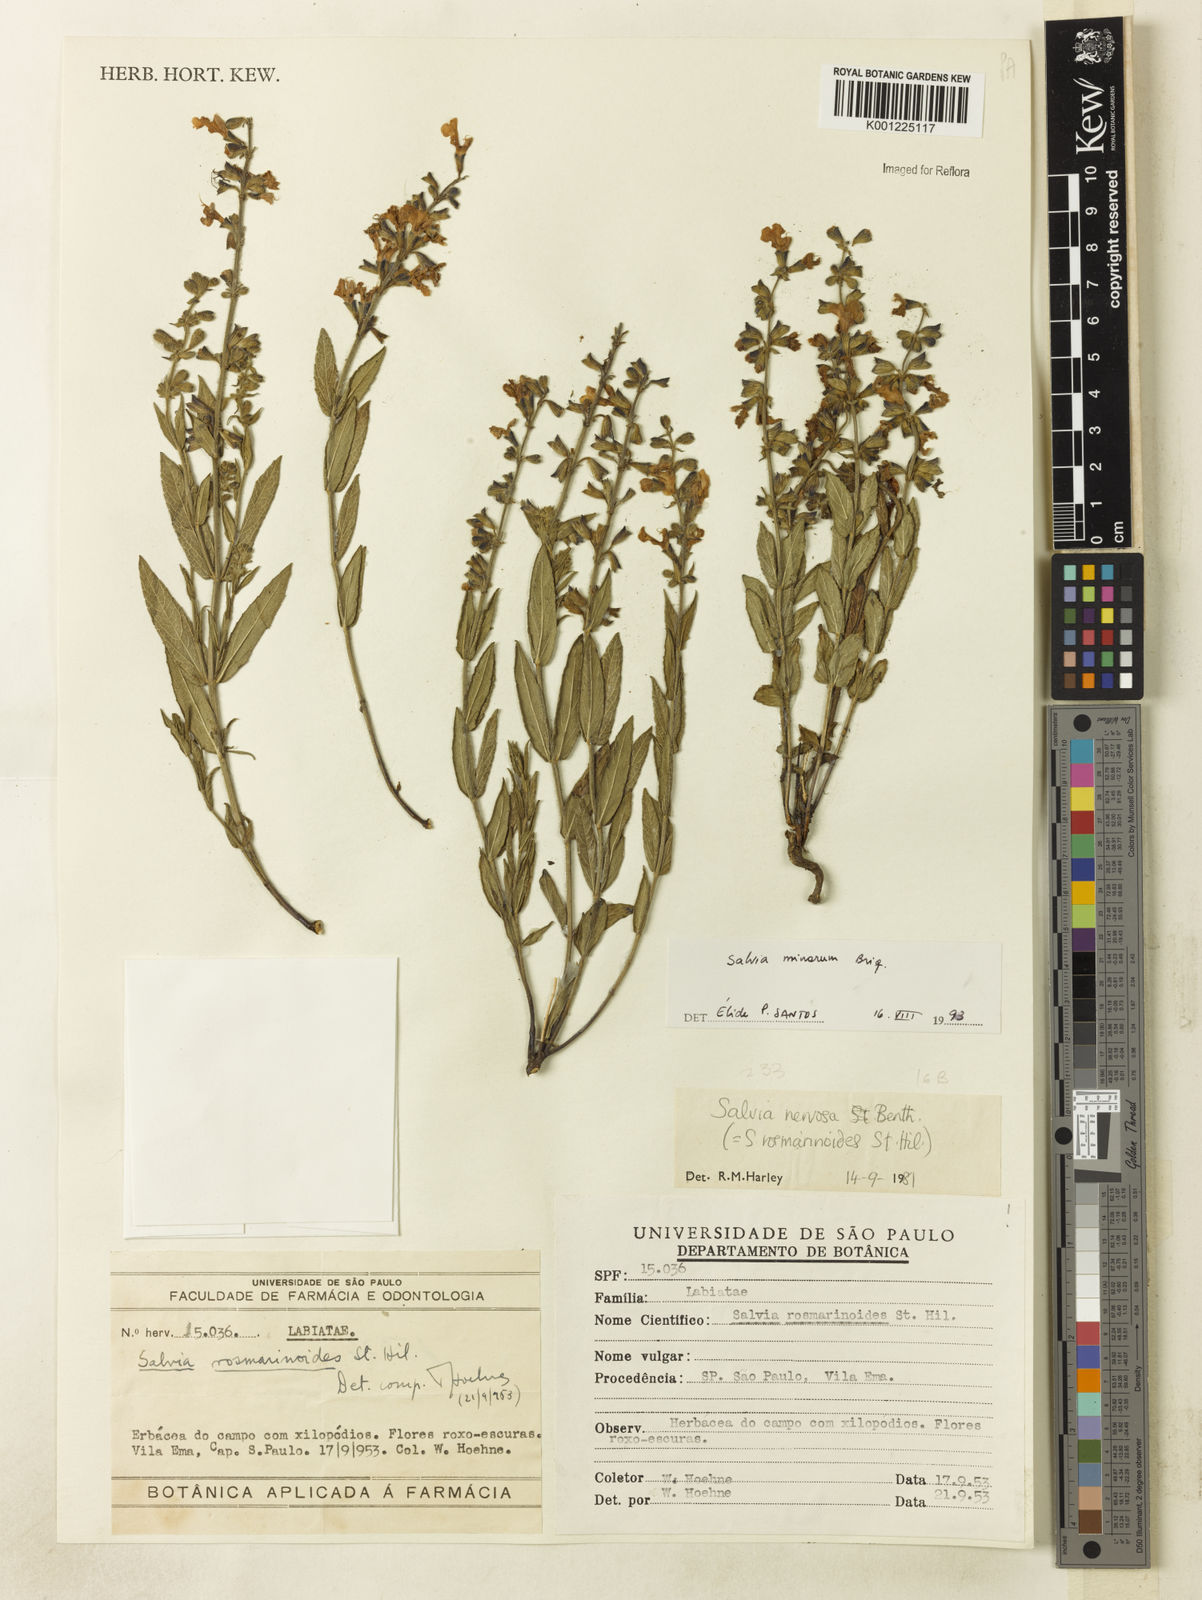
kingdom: Plantae
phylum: Tracheophyta
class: Magnoliopsida
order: Lamiales
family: Lamiaceae
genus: Salvia
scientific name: Salvia minarum
